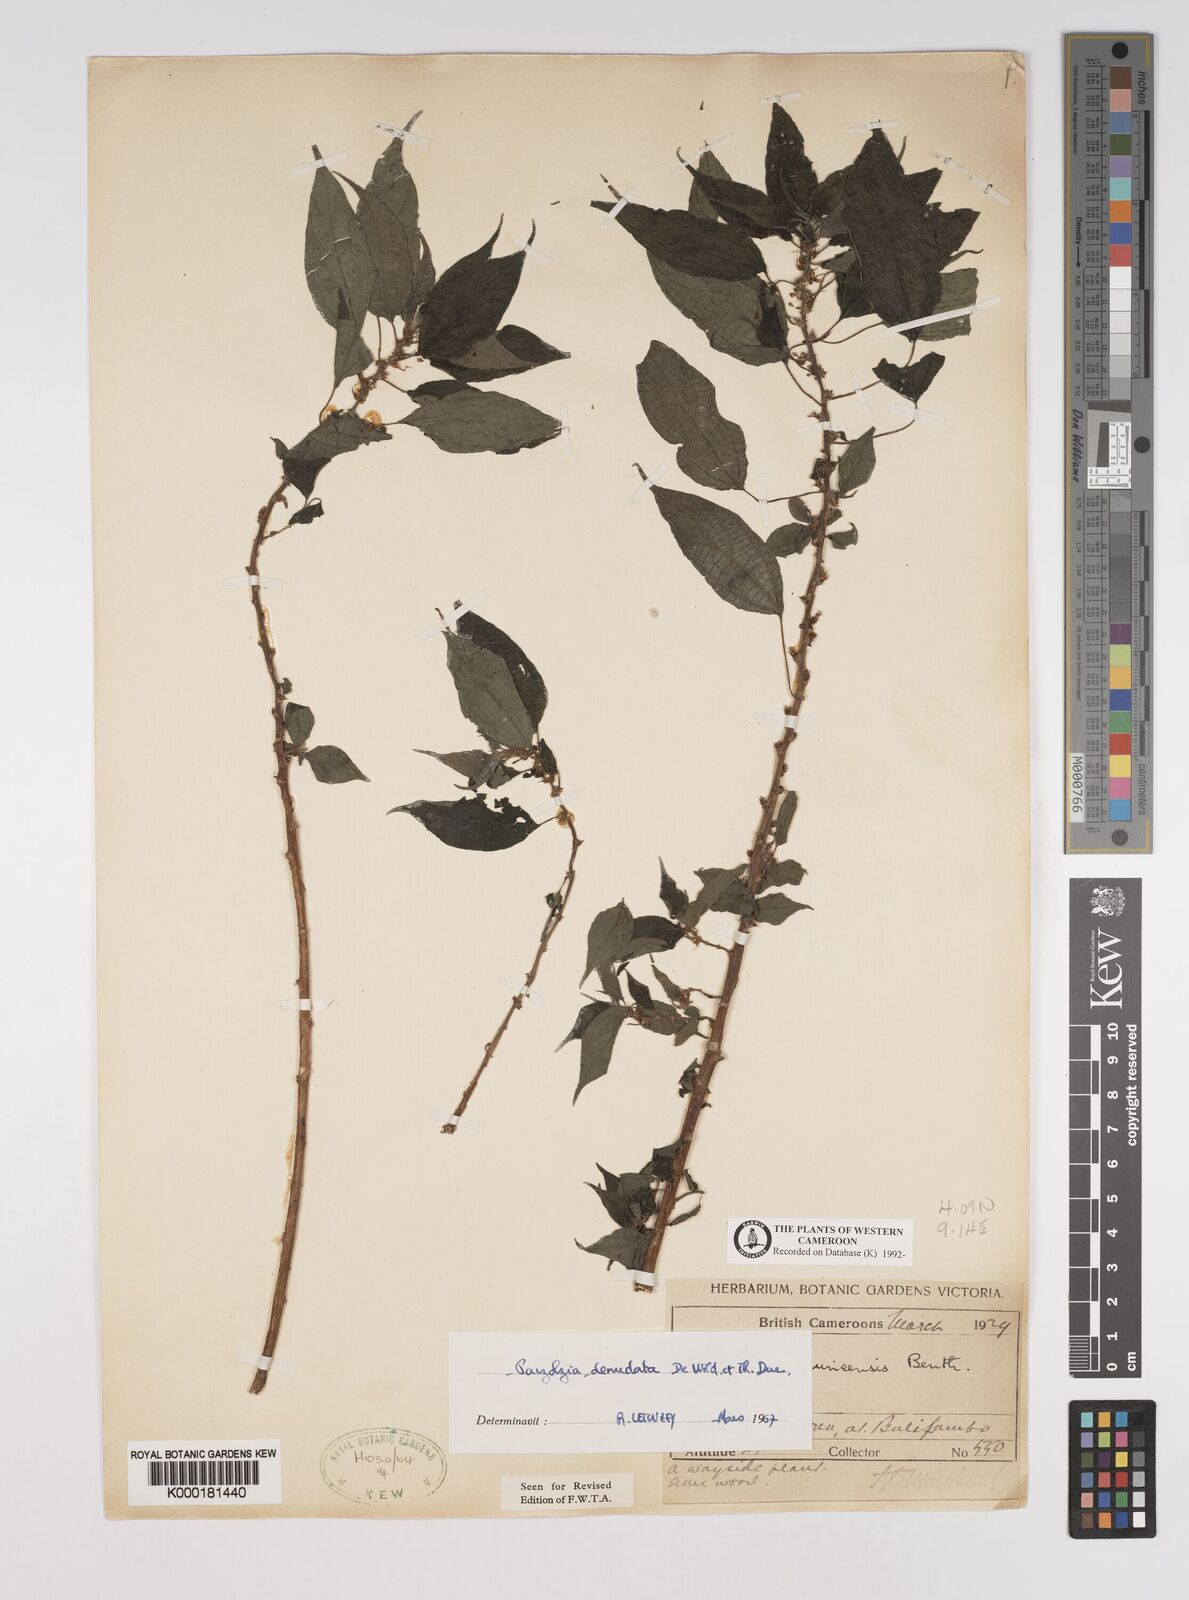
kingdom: Plantae
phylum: Tracheophyta
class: Magnoliopsida
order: Rosales
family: Urticaceae
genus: Pouzolzia
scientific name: Pouzolzia denudata
